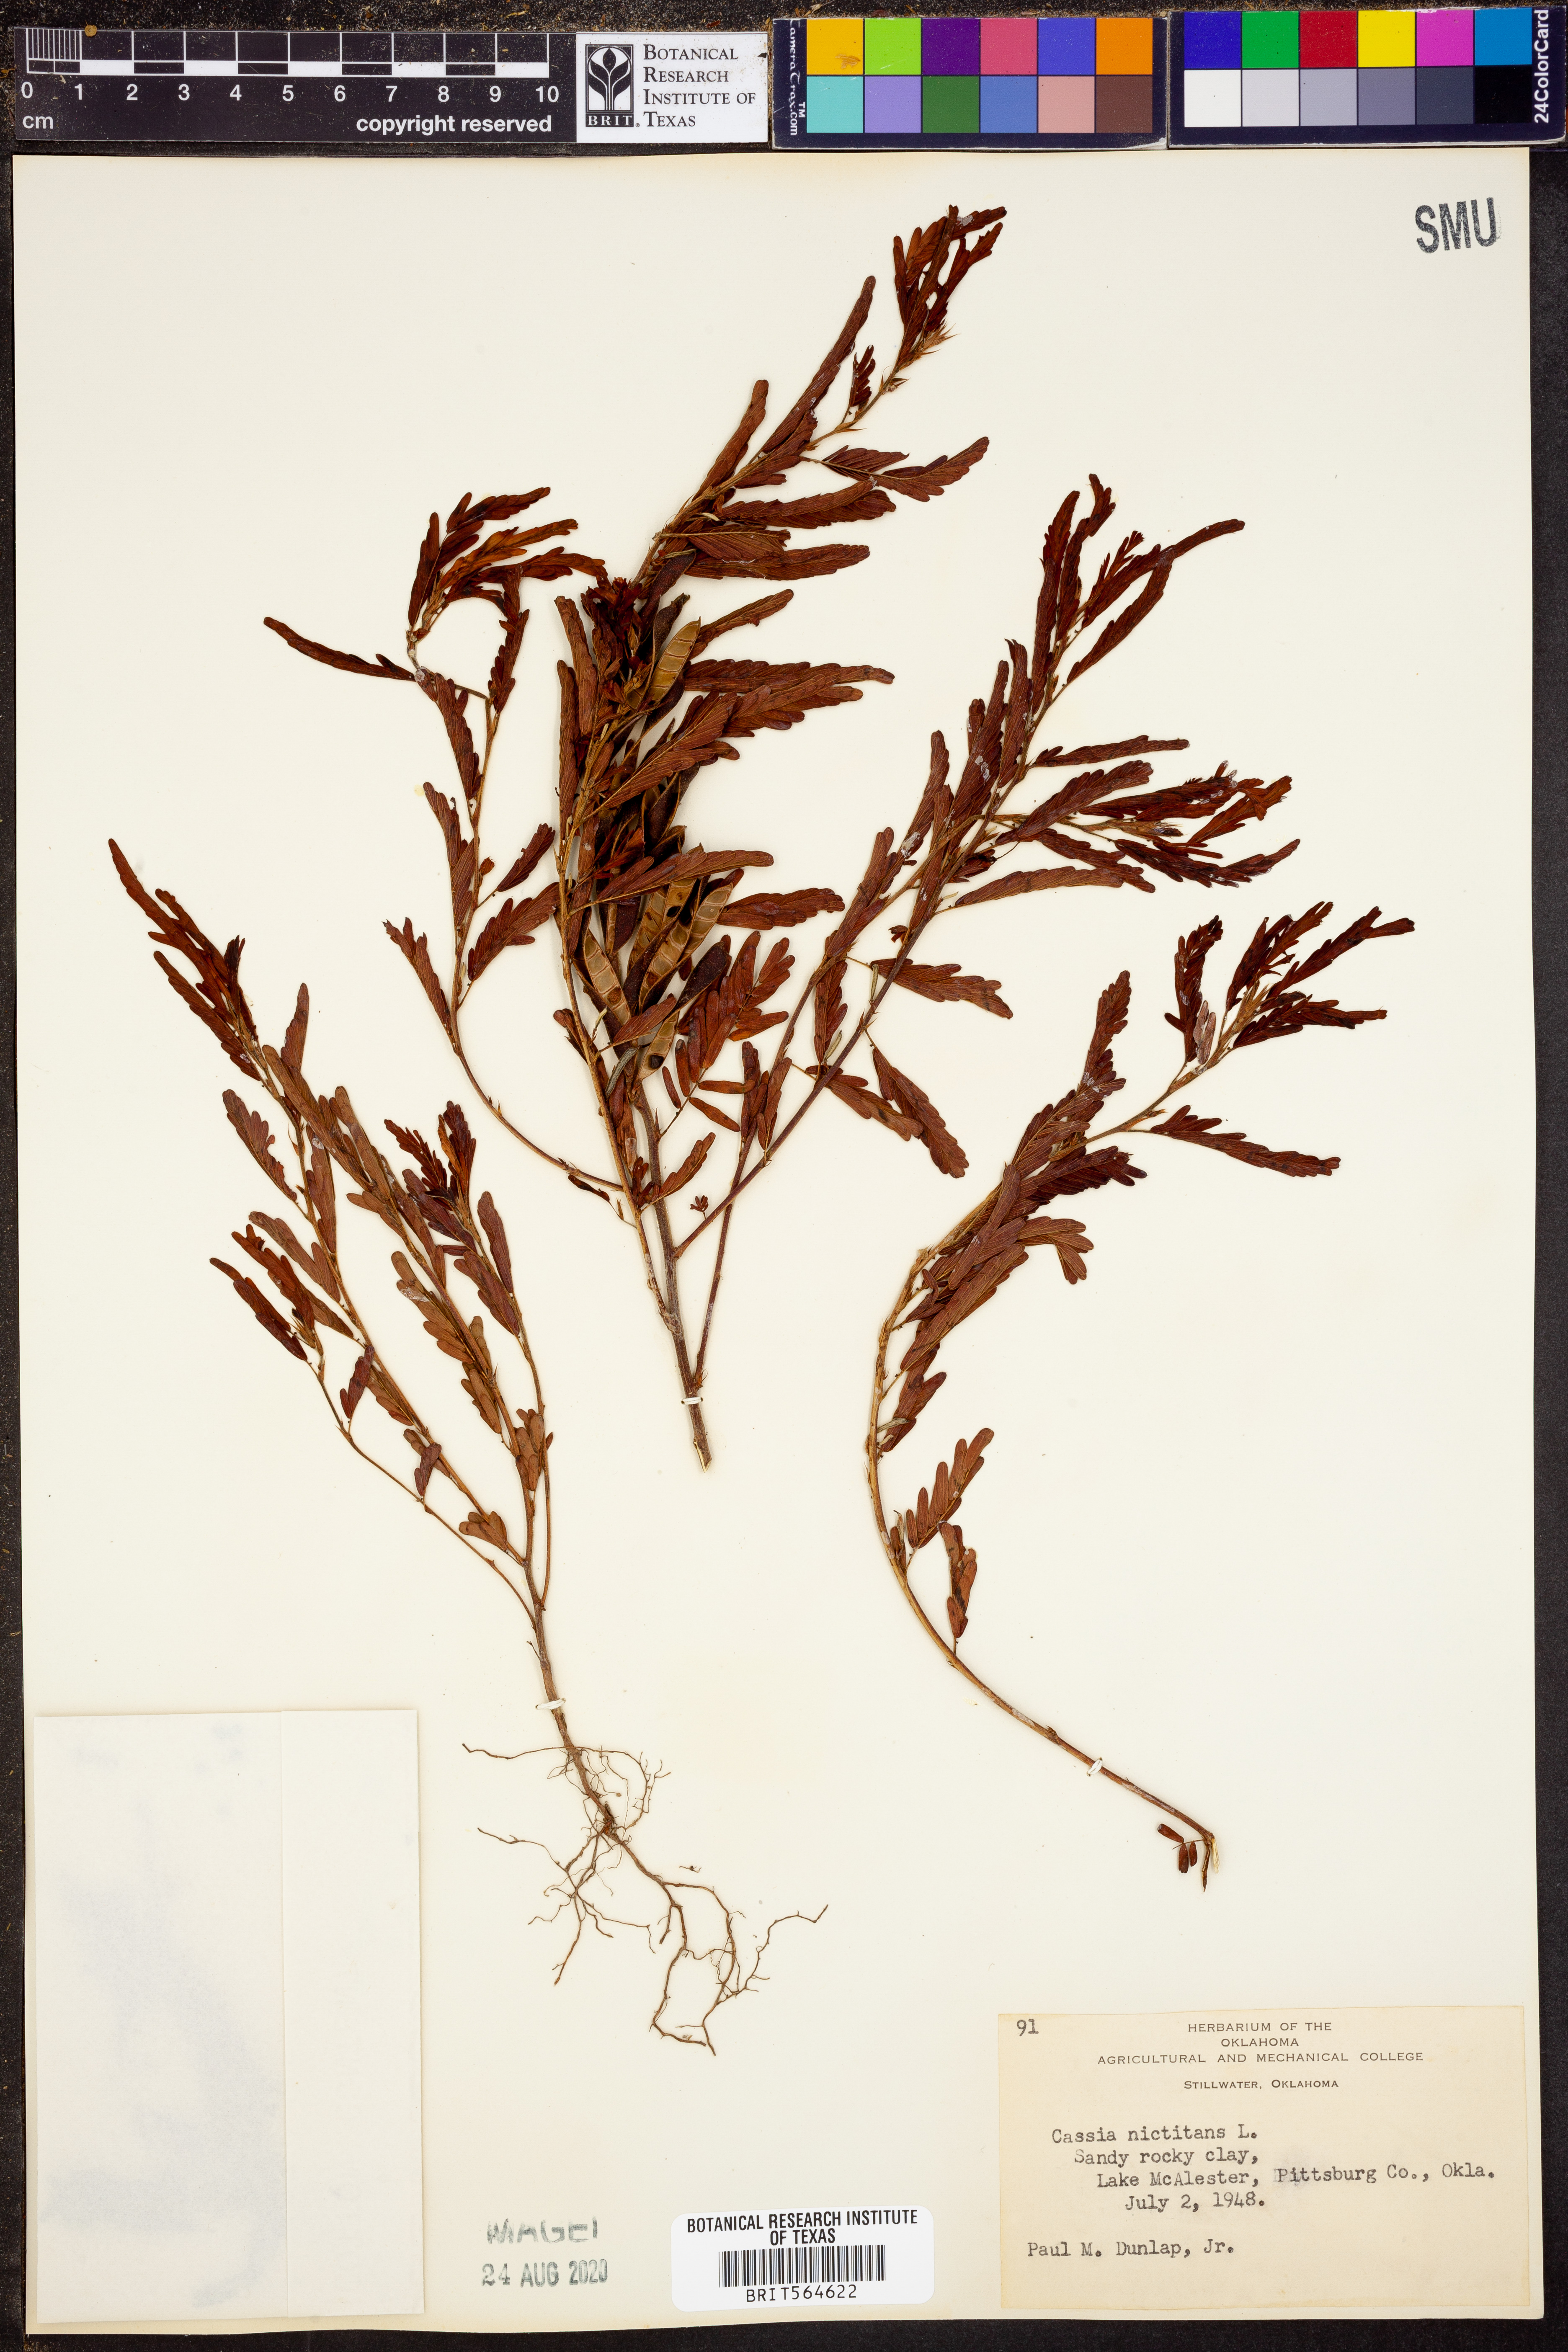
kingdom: Plantae
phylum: Tracheophyta
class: Magnoliopsida
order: Fabales
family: Fabaceae
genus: Chamaecrista
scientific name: Chamaecrista nictitans
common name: Sensitive cassia
